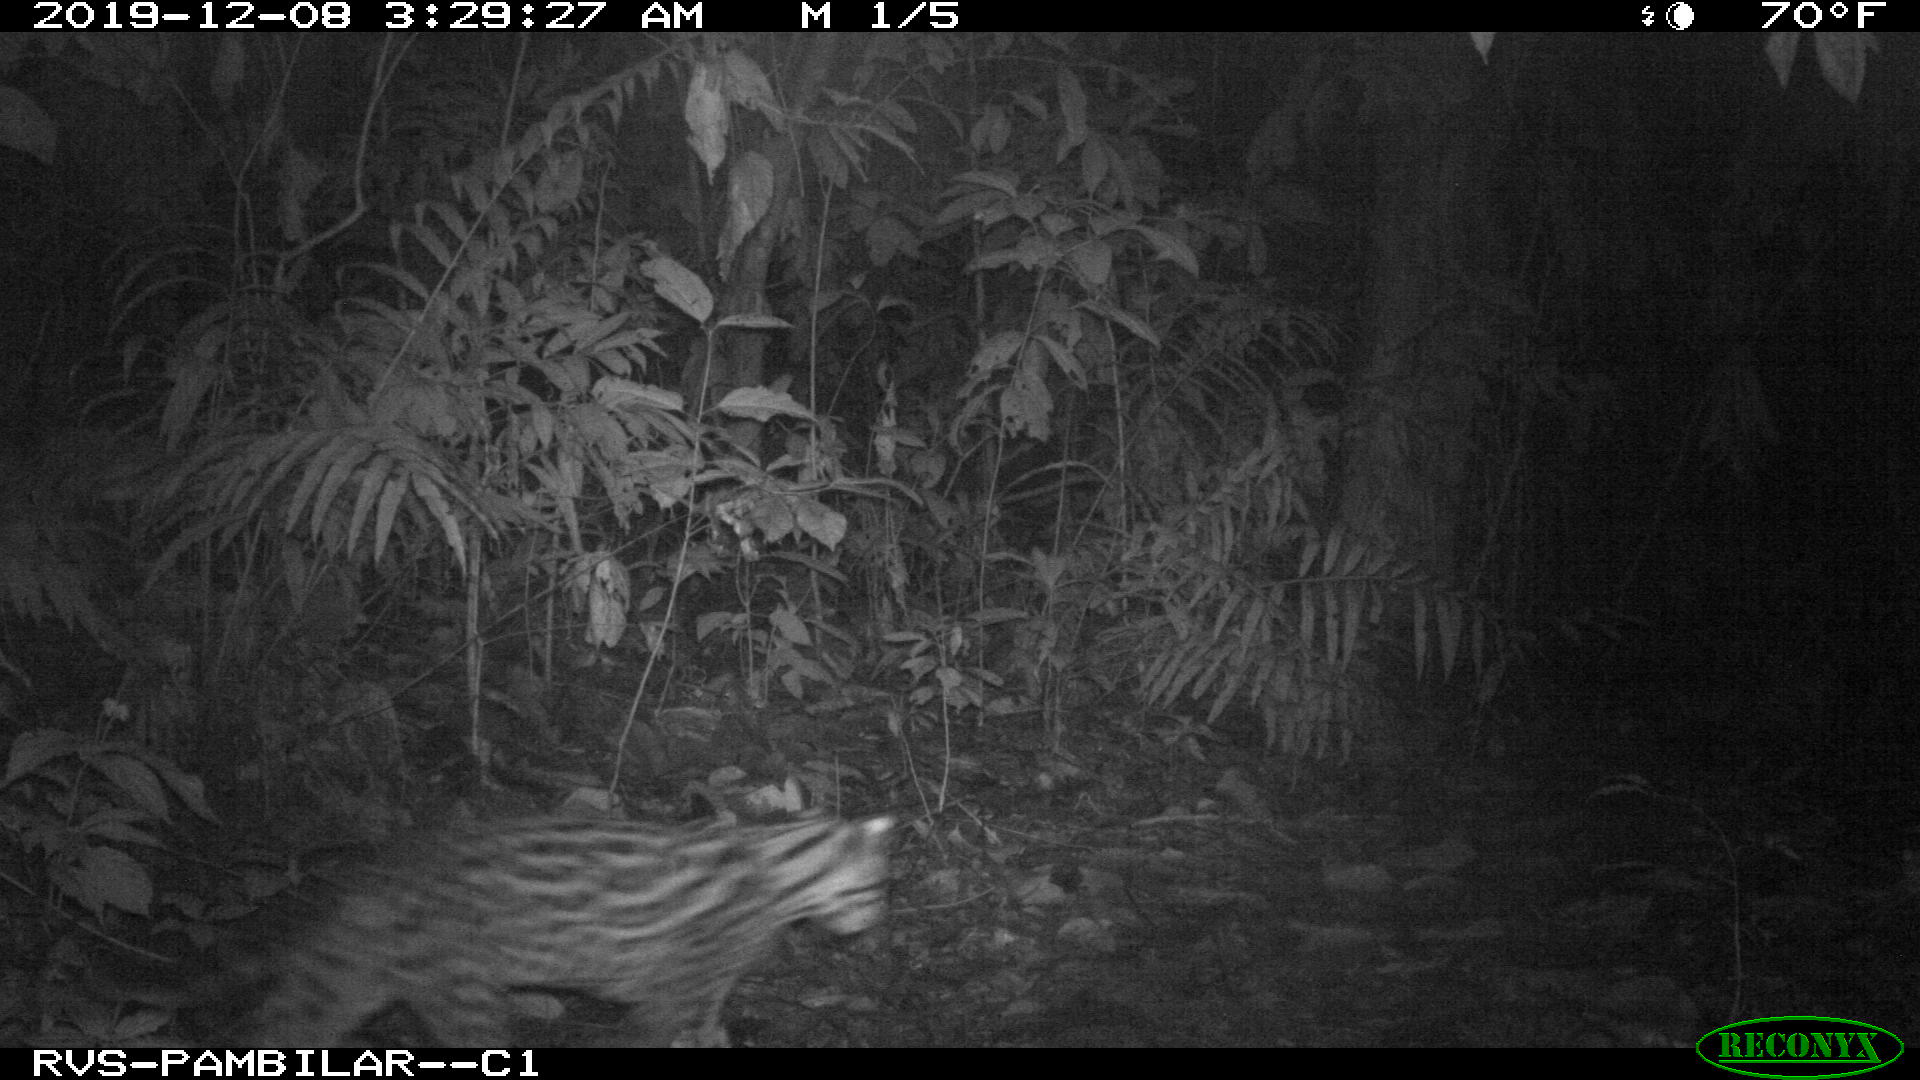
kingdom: Animalia
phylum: Chordata
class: Mammalia
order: Carnivora
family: Felidae
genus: Leopardus
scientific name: Leopardus pardalis
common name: Ocelot
